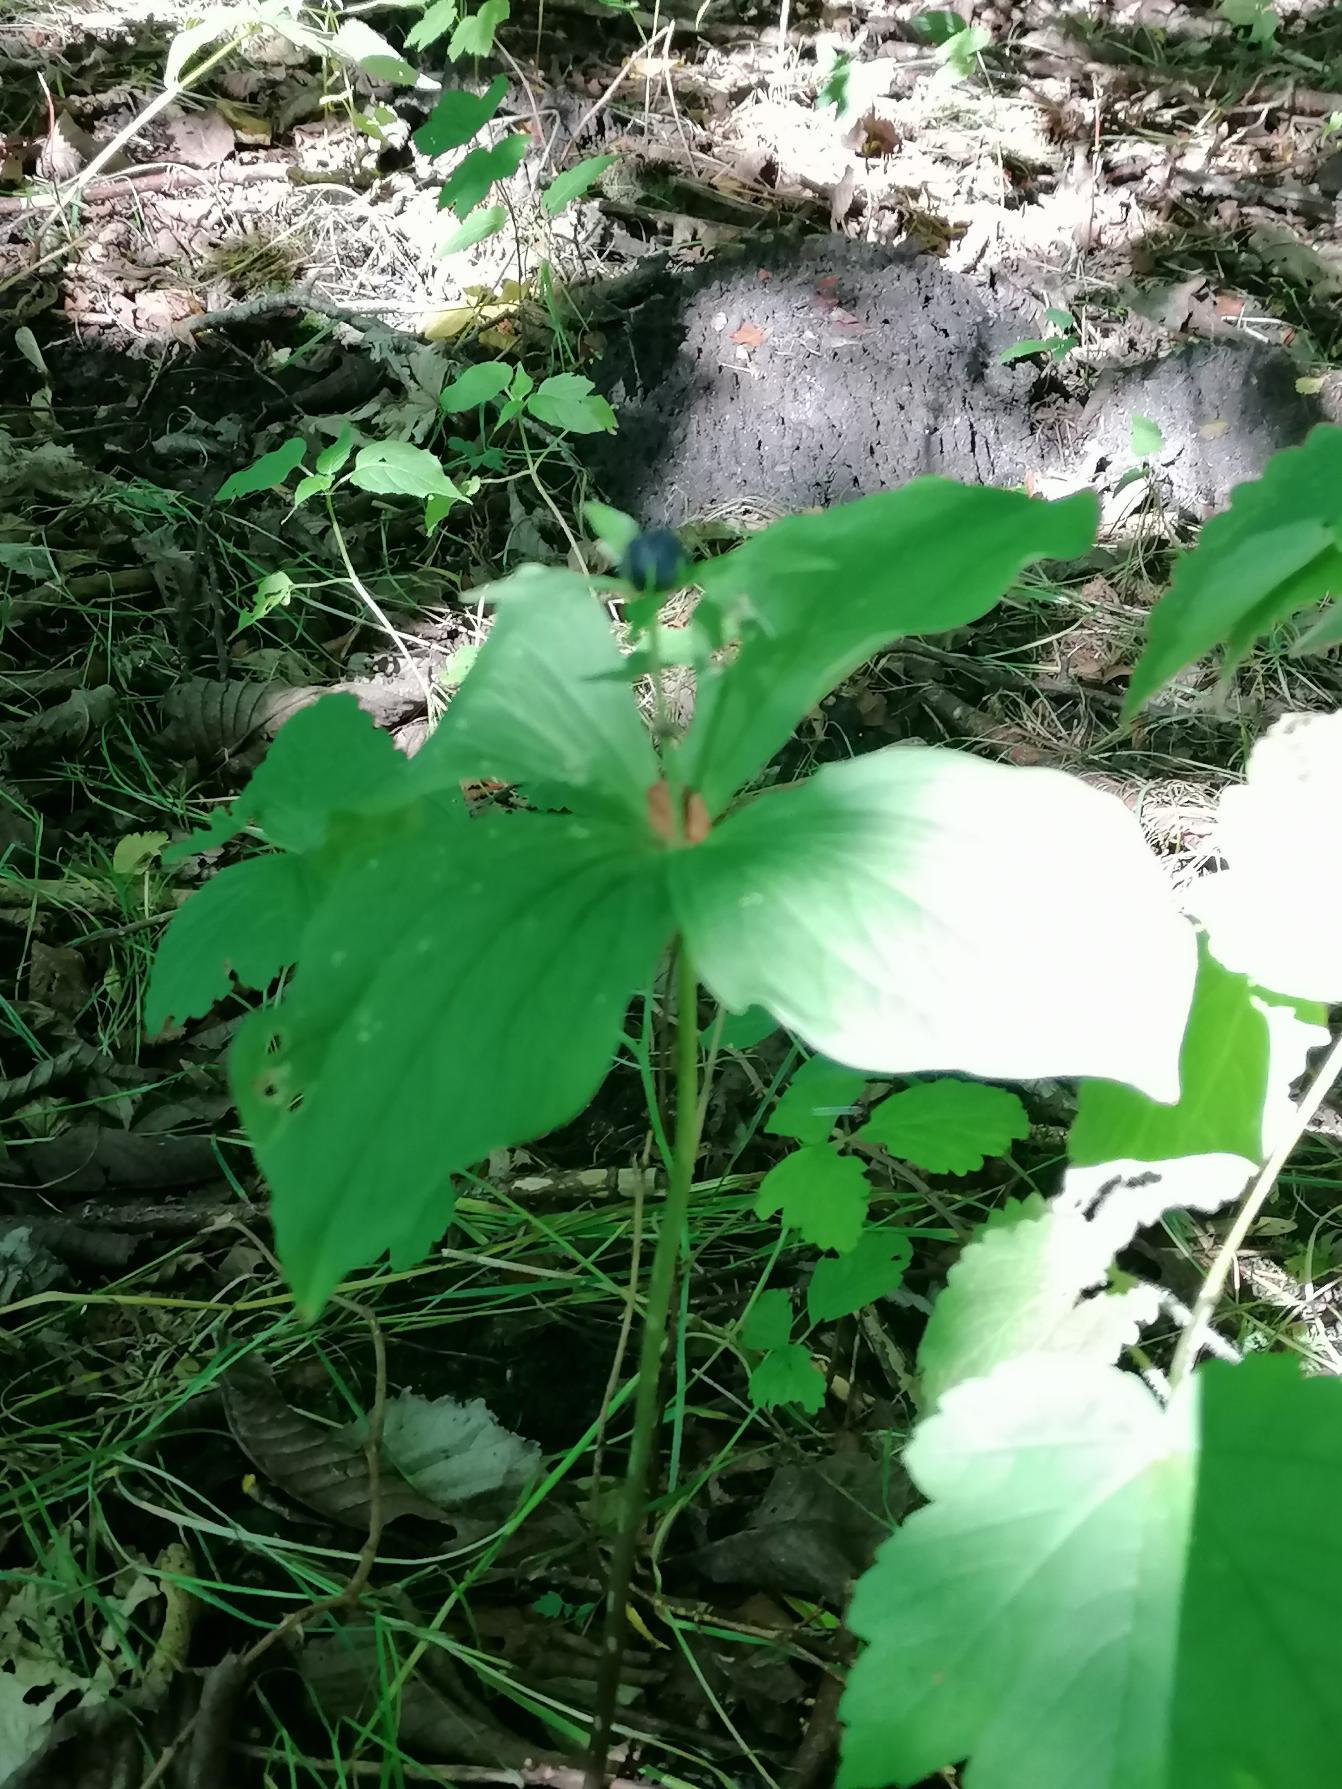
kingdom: Plantae
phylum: Tracheophyta
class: Liliopsida
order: Liliales
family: Melanthiaceae
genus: Paris
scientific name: Paris quadrifolia
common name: Firblad
